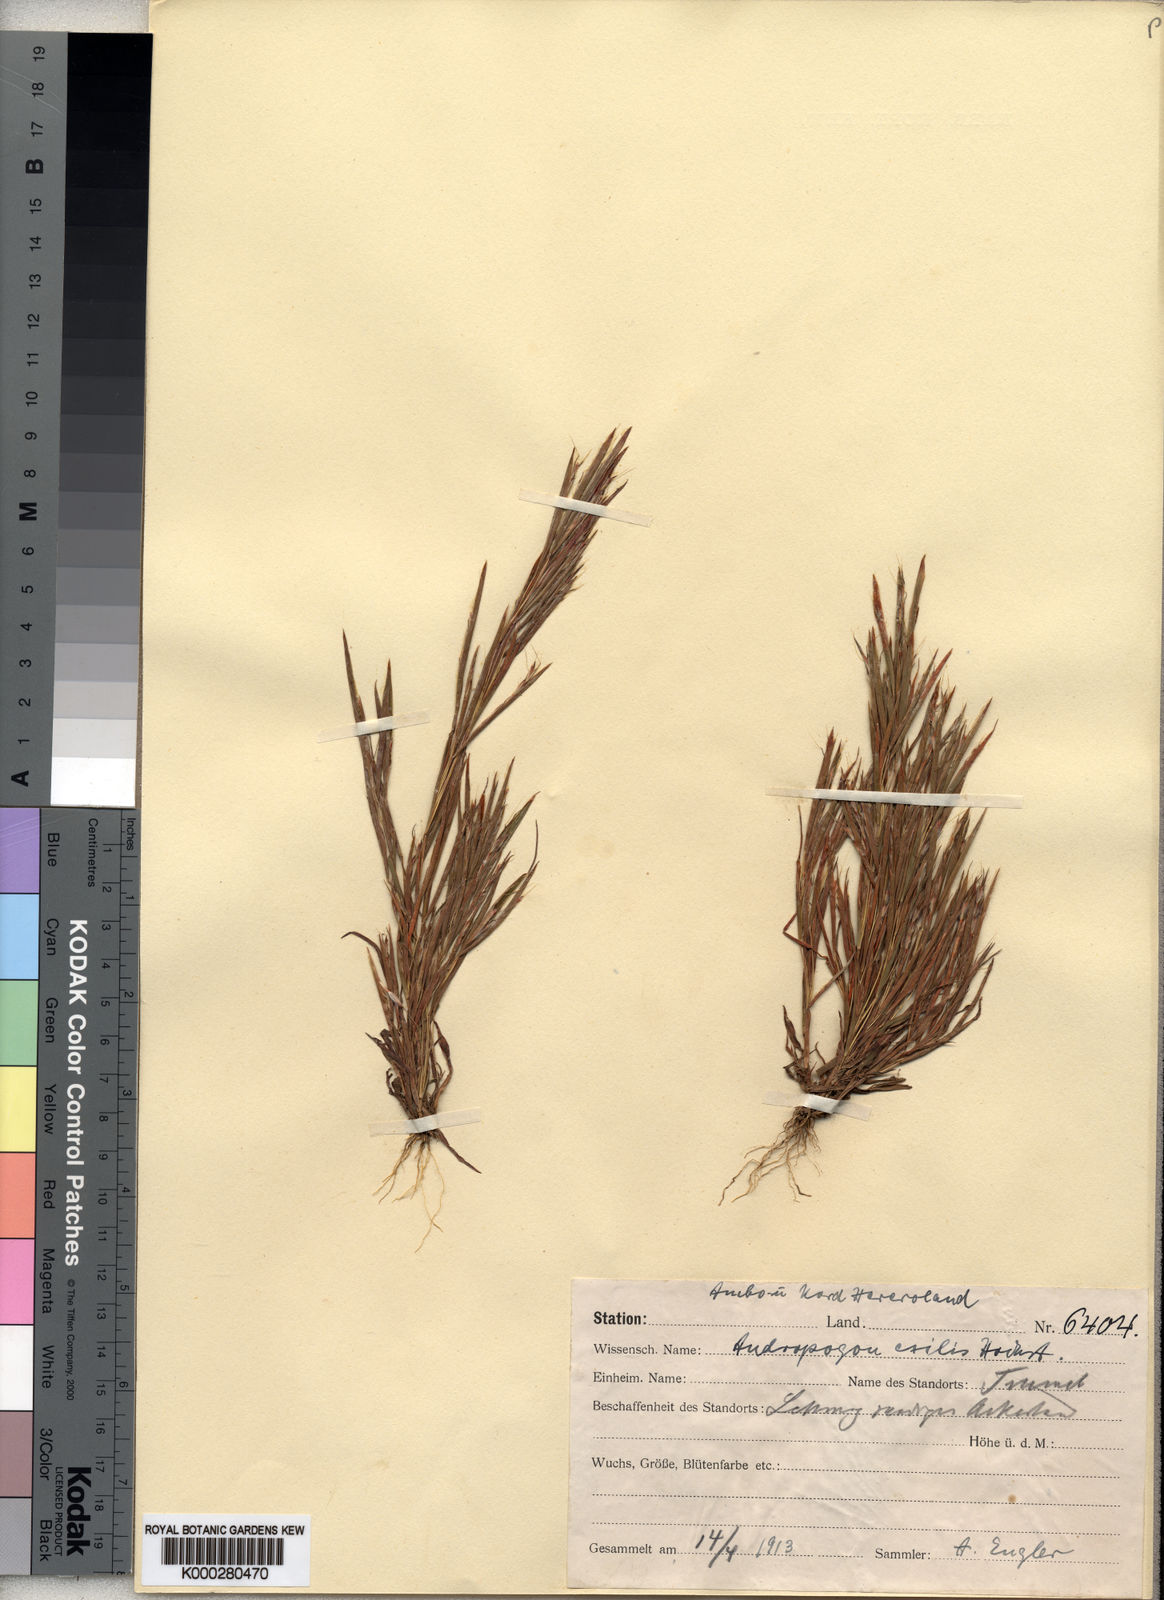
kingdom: Plantae
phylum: Tracheophyta
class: Liliopsida
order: Poales
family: Poaceae
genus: Schizachyrium
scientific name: Schizachyrium exile
